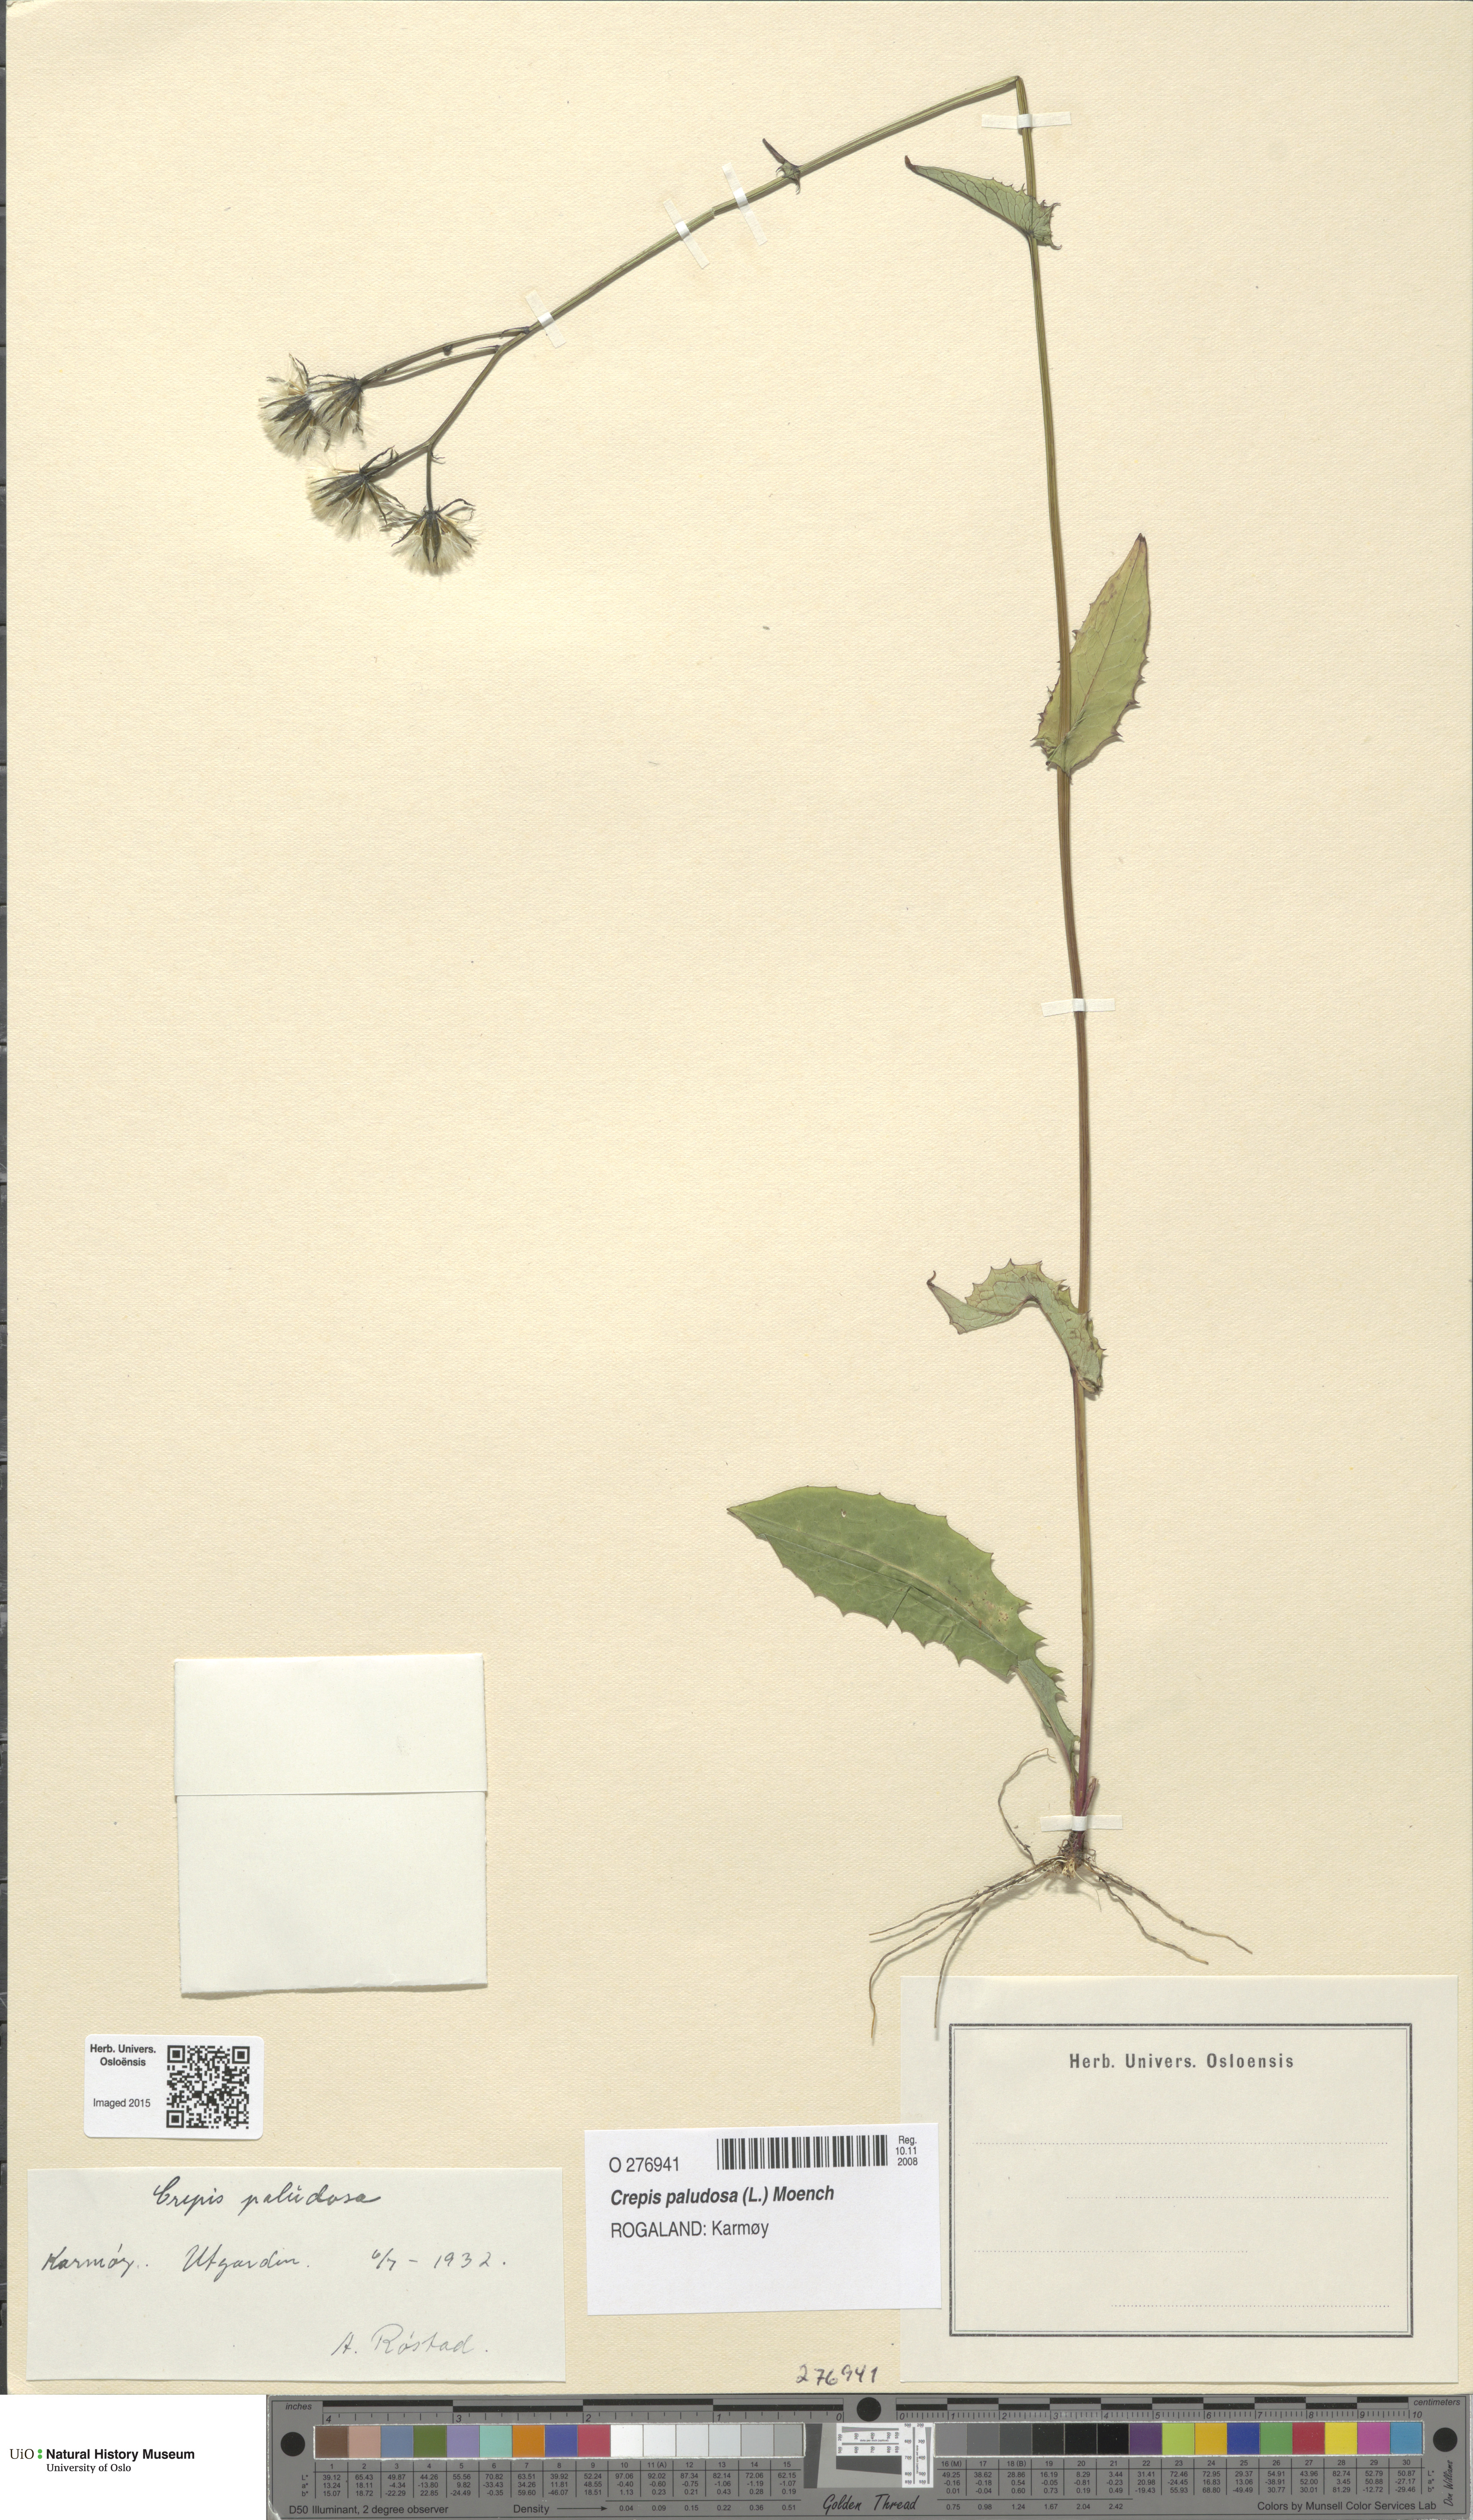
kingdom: Plantae
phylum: Tracheophyta
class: Magnoliopsida
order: Asterales
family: Asteraceae
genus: Crepis
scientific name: Crepis paludosa
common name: Marsh hawk's-beard
